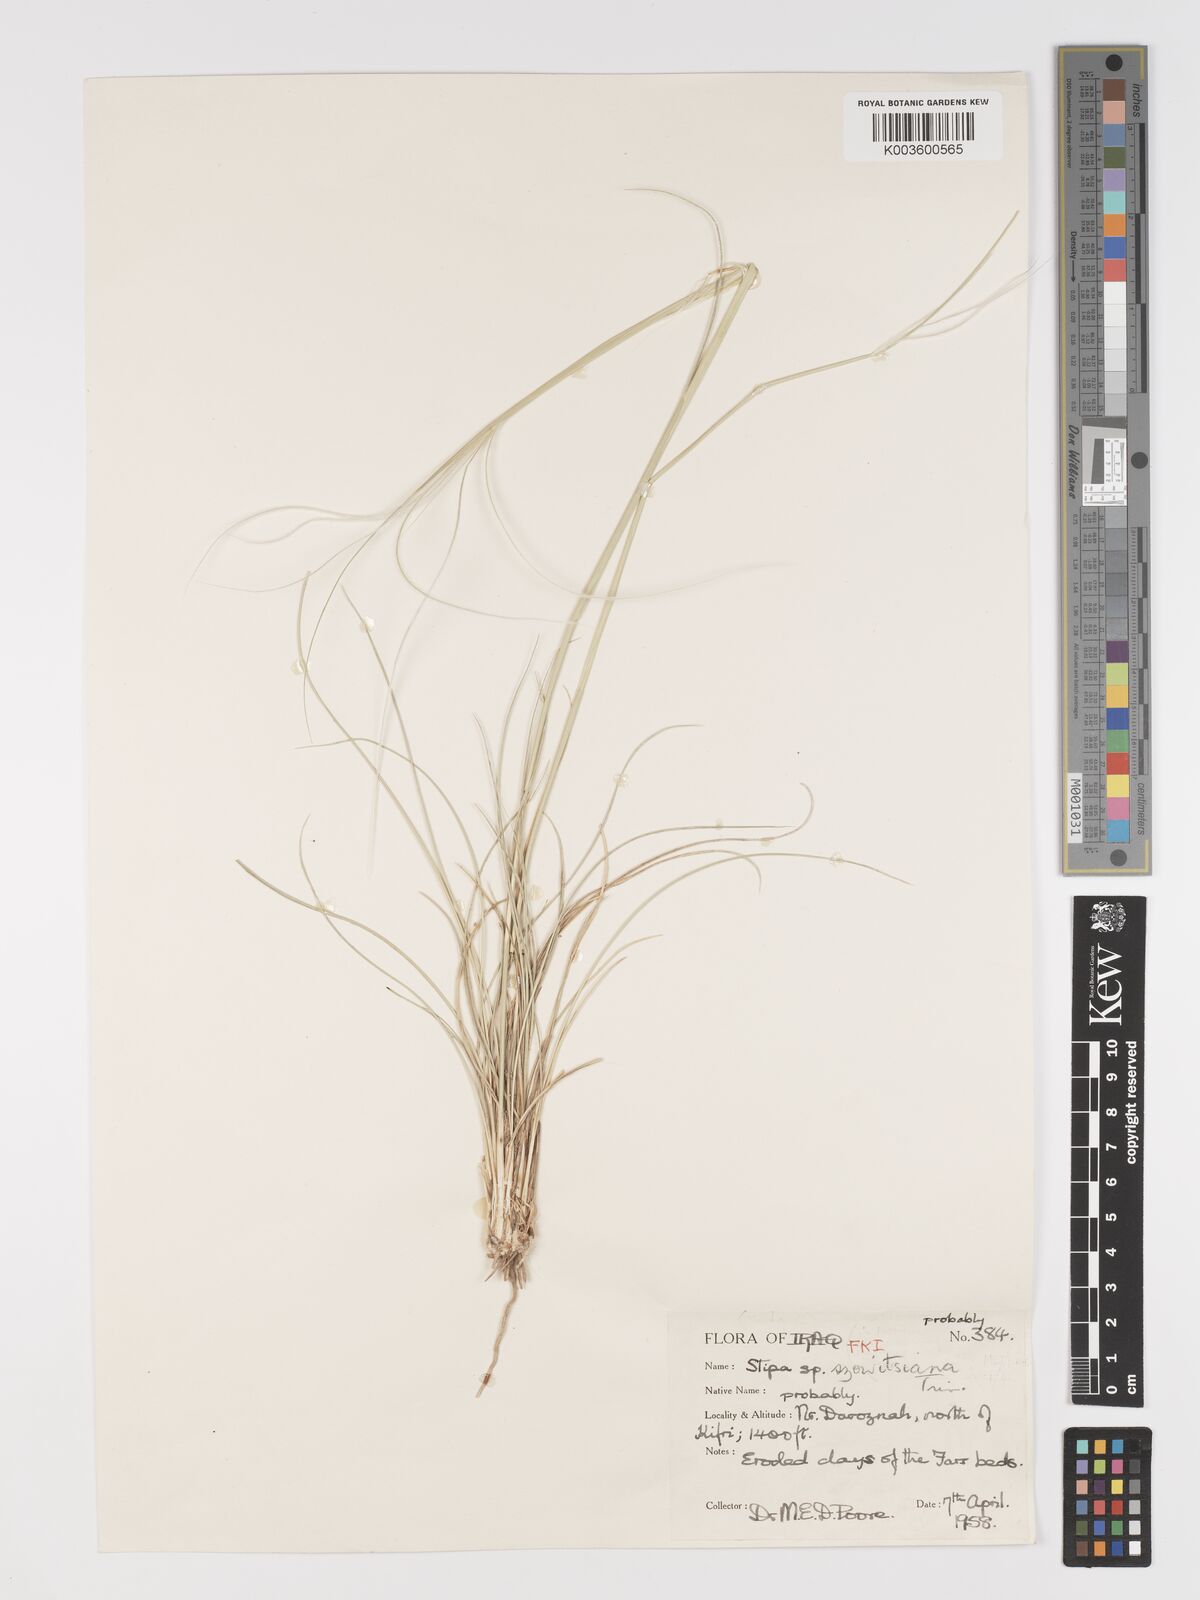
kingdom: Plantae
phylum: Tracheophyta
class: Liliopsida
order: Poales
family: Poaceae
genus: Stipa
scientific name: Stipa barbata
